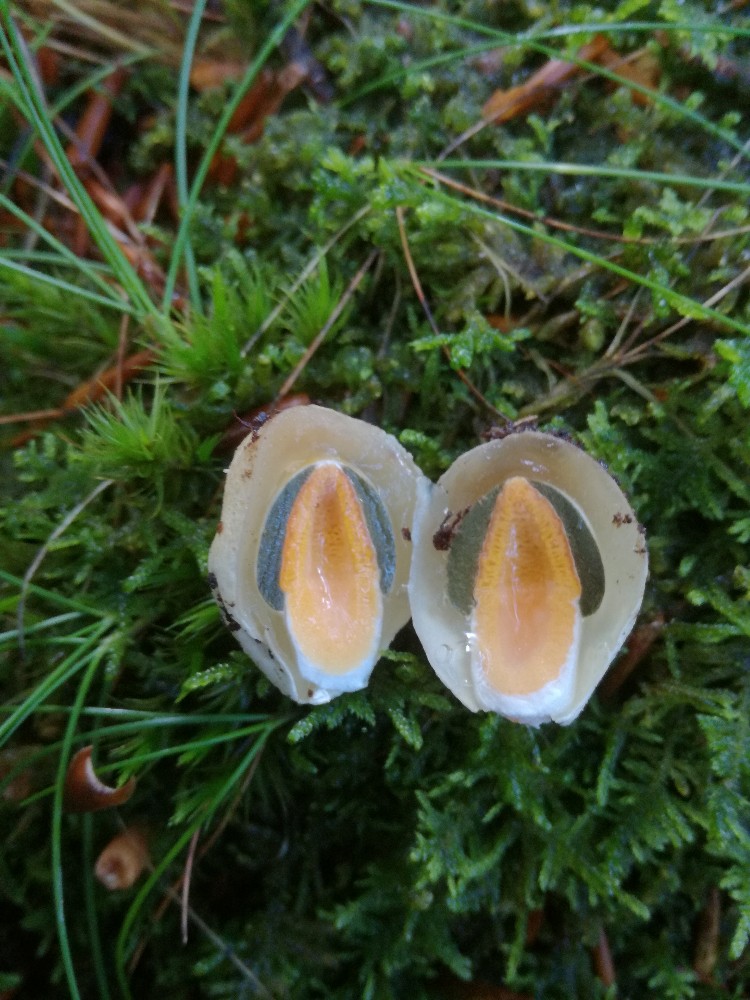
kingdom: Fungi
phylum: Basidiomycota
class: Agaricomycetes
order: Phallales
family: Phallaceae
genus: Mutinus
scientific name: Mutinus caninus
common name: hunde-stinksvamp
